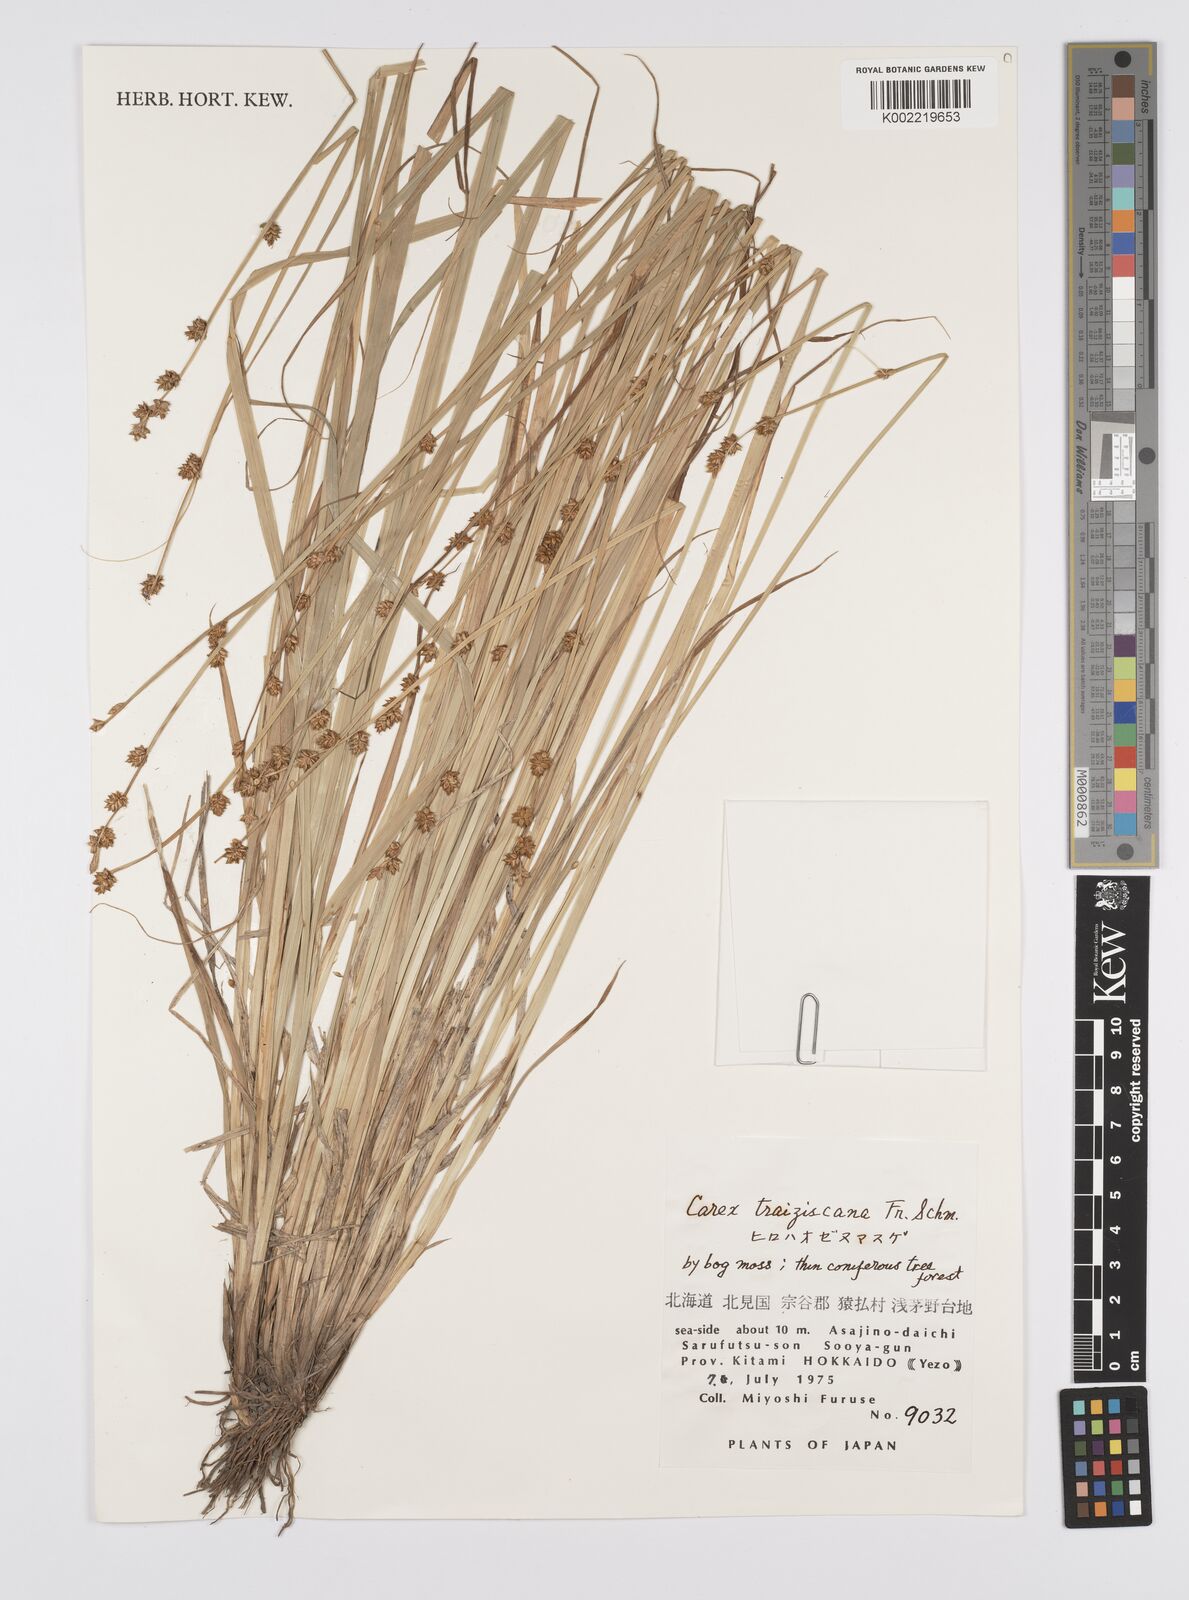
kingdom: Plantae
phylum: Tracheophyta
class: Liliopsida
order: Poales
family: Cyperaceae
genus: Carex
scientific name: Carex traiziscana
